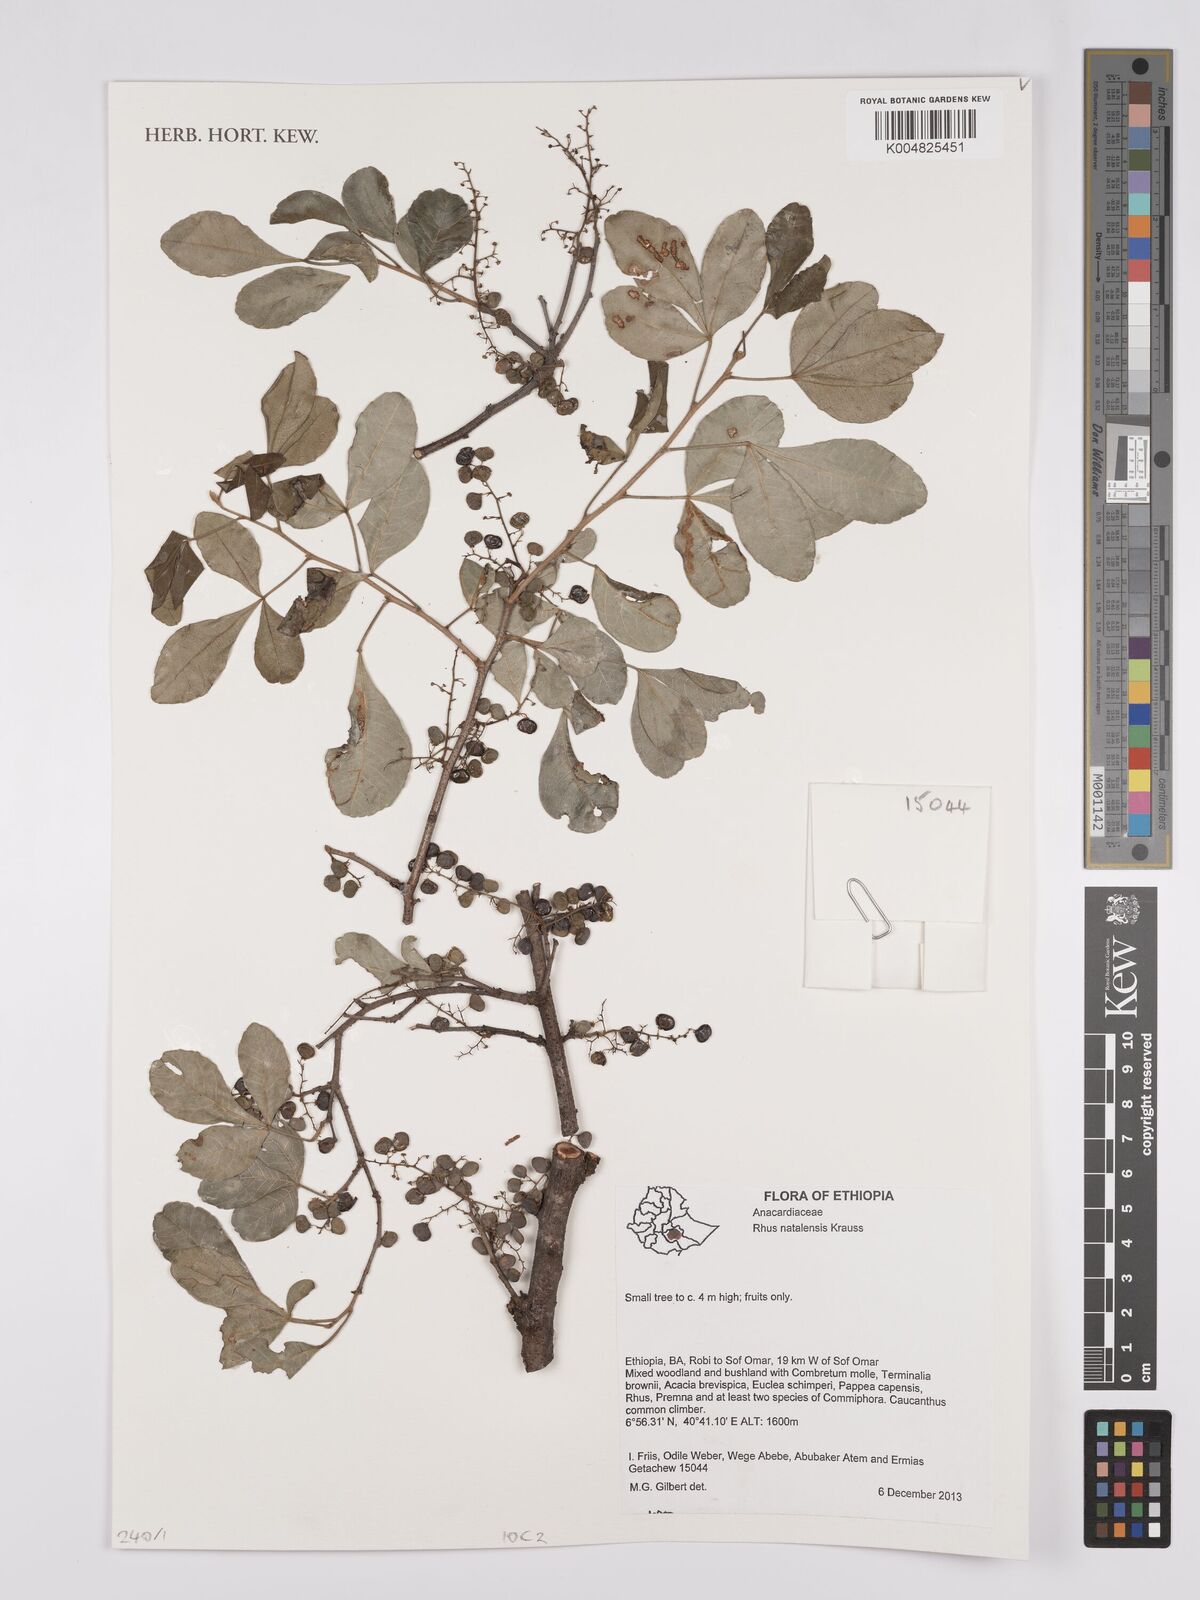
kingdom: Plantae
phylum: Tracheophyta
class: Magnoliopsida
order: Sapindales
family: Anacardiaceae
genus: Searsia
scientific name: Searsia natalensis
